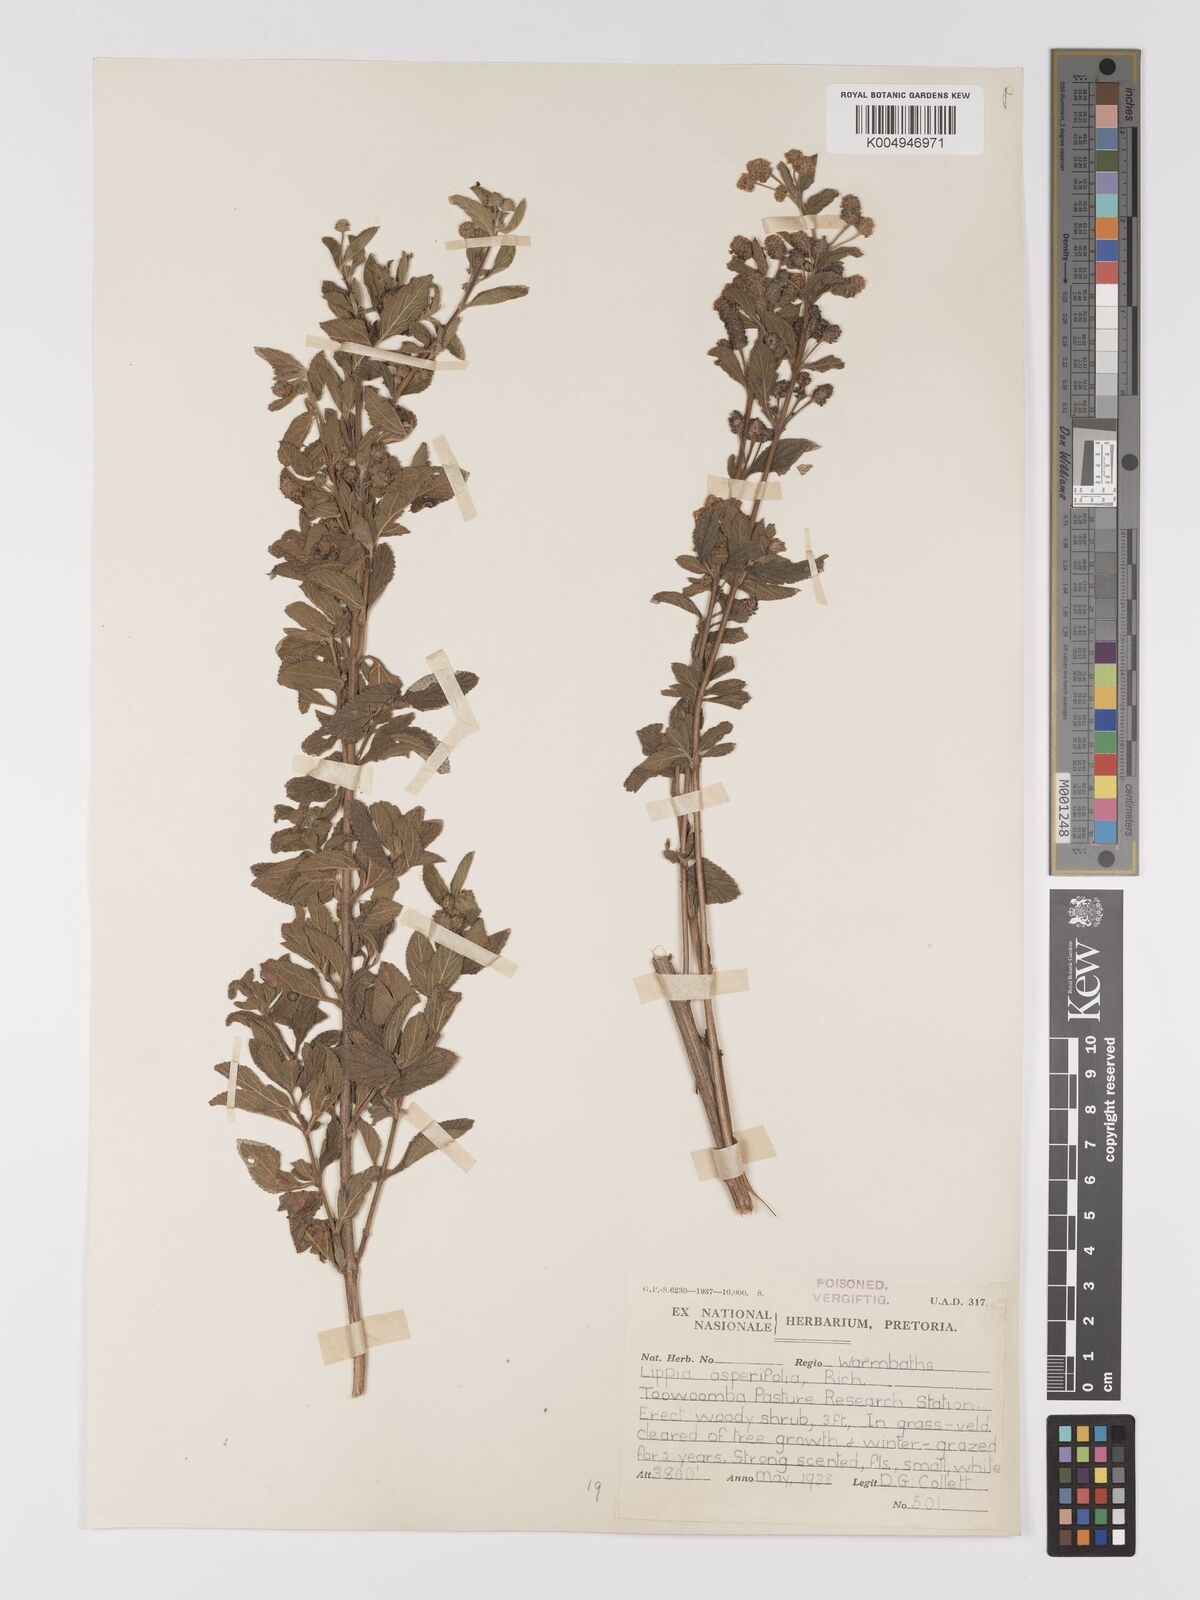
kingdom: Plantae
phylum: Tracheophyta
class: Magnoliopsida
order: Lamiales
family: Verbenaceae
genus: Lippia
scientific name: Lippia
